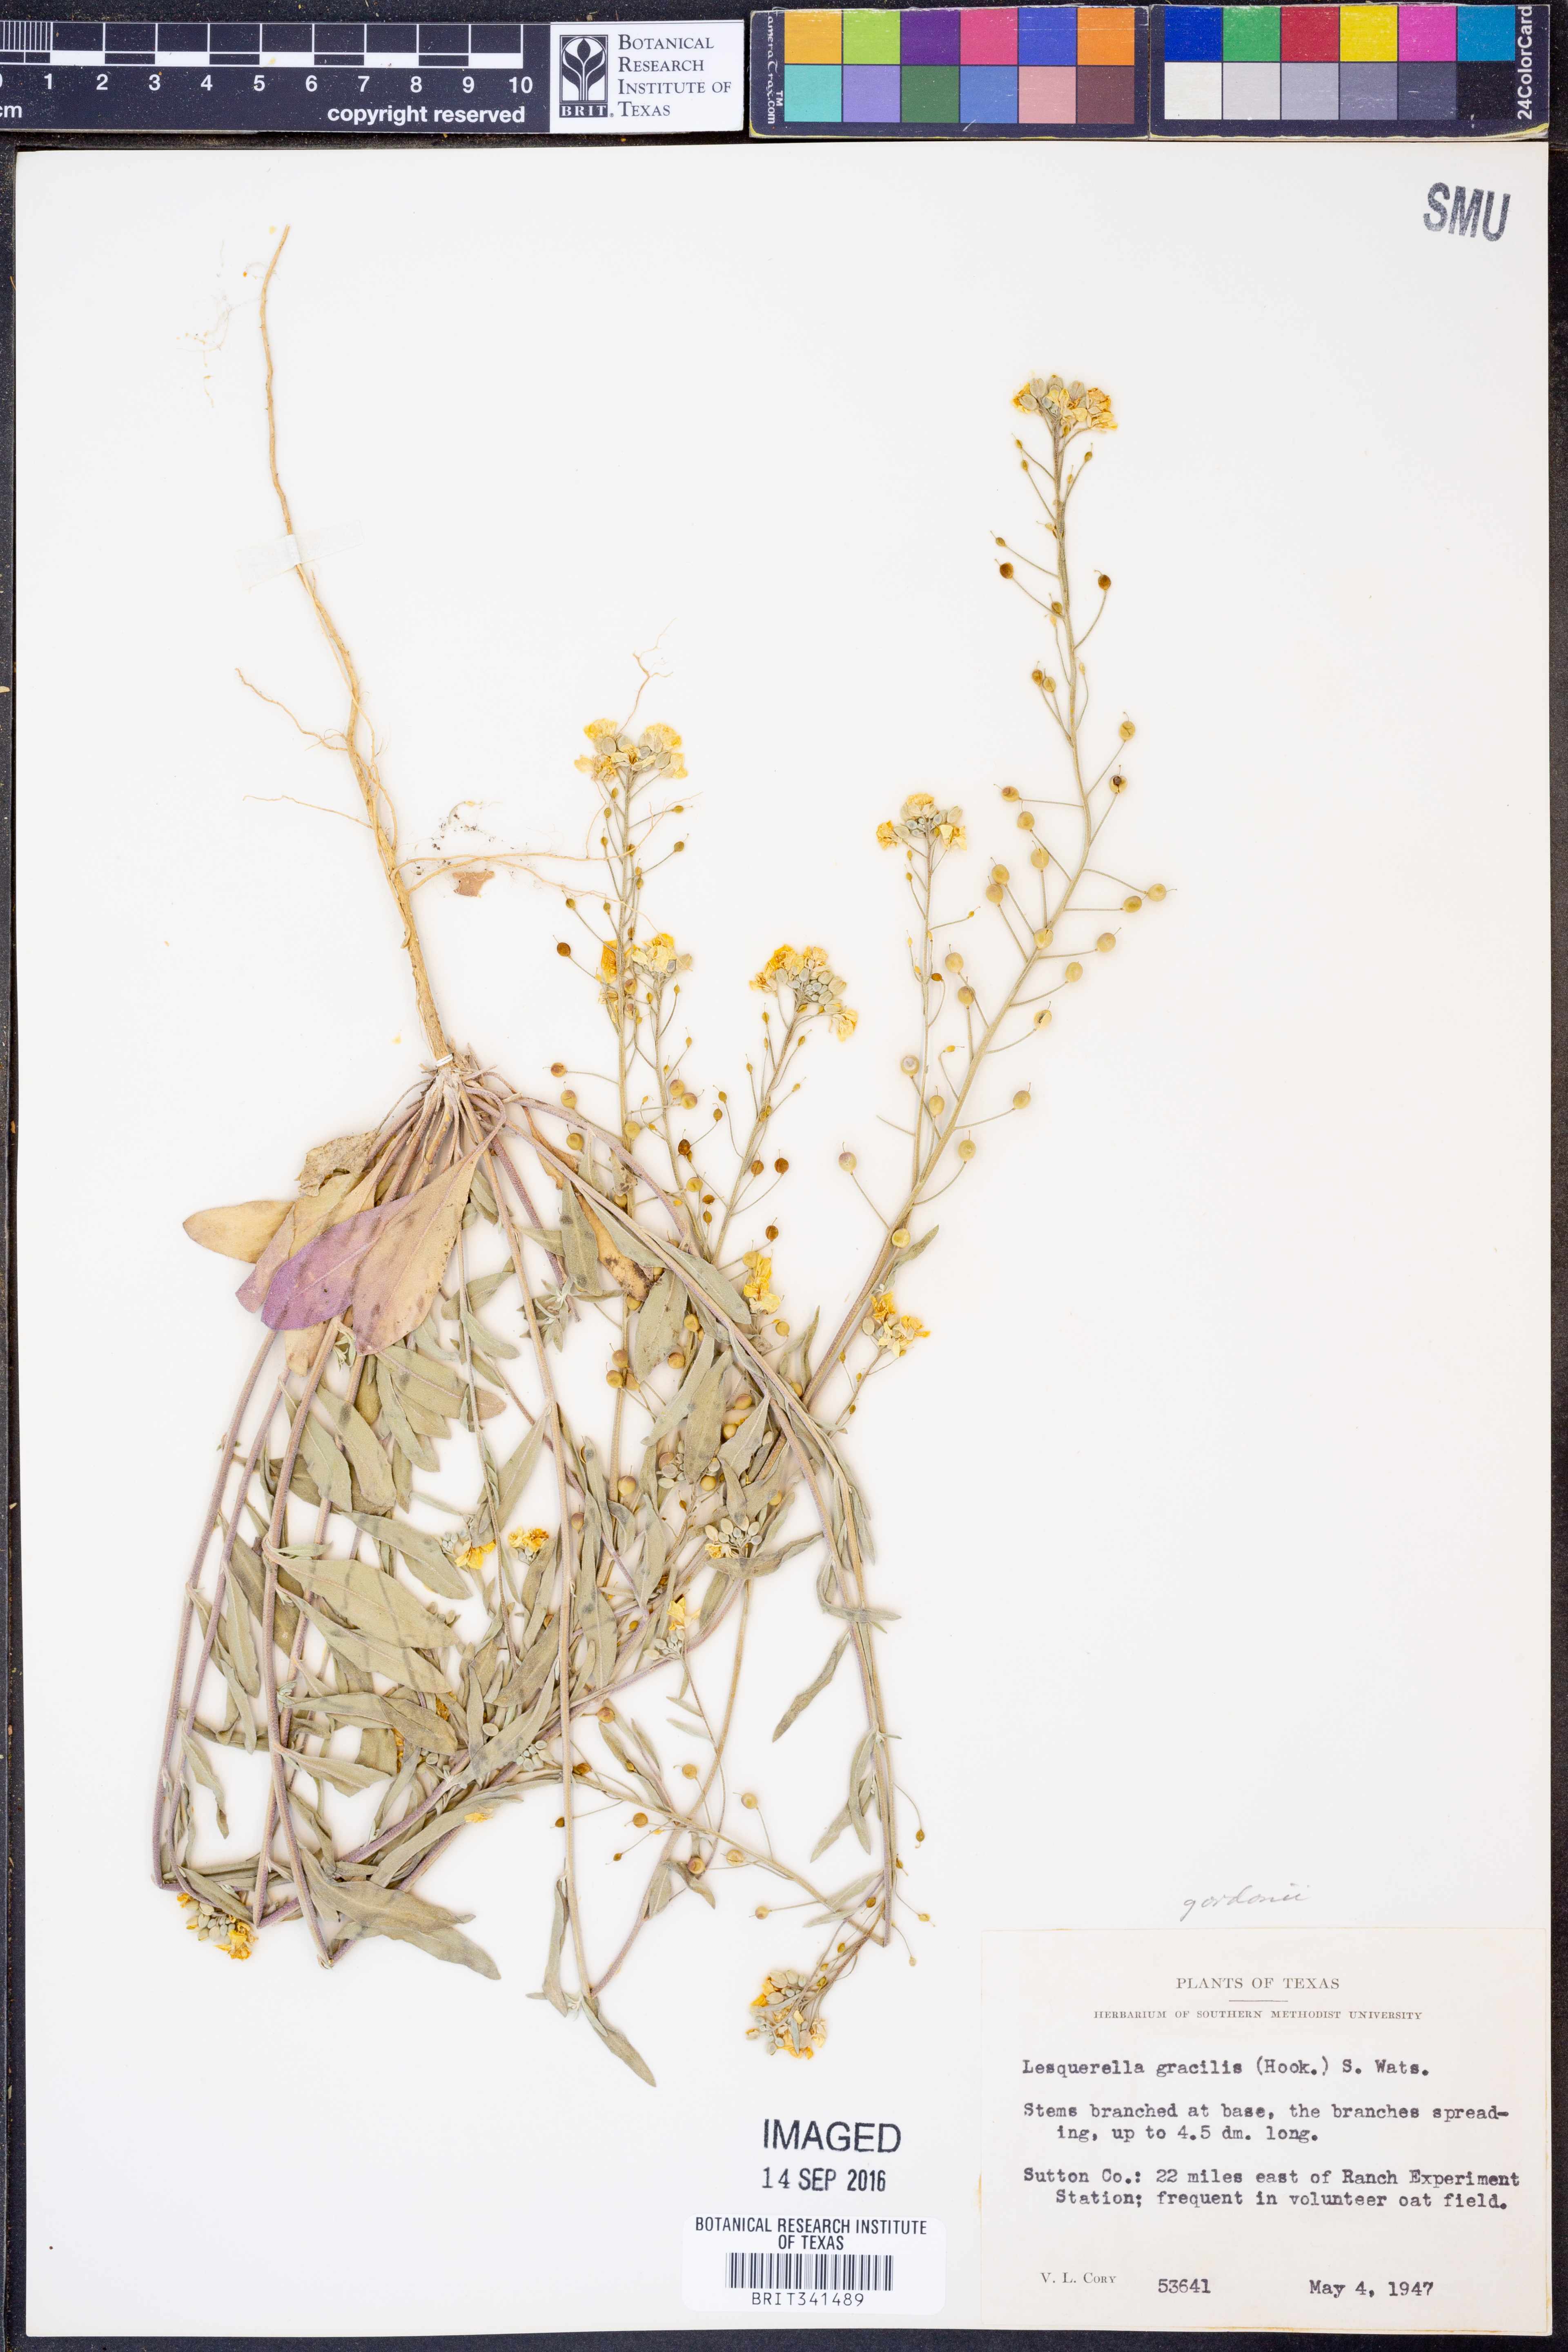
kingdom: Plantae
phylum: Tracheophyta
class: Magnoliopsida
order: Brassicales
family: Brassicaceae
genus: Physaria
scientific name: Physaria gordonii
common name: Gordon's bladderpod
